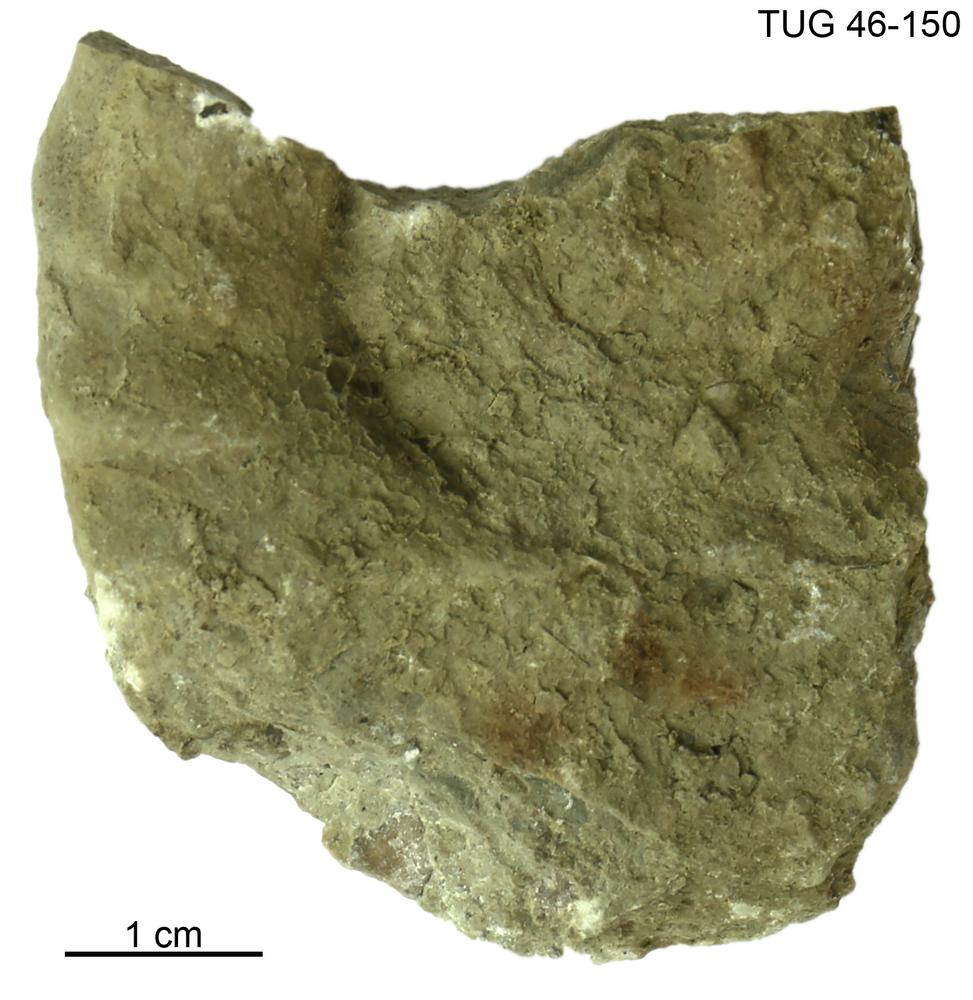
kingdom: Animalia
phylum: Mollusca
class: Cephalopoda
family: Trocholitidae
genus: Discoceras
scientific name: Discoceras Clymenia antiquissima
